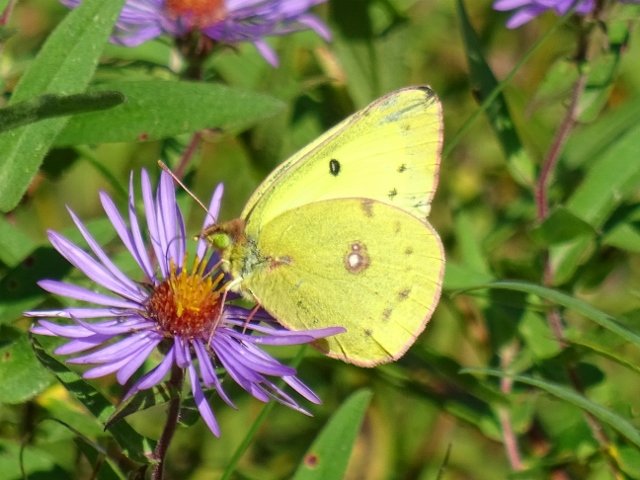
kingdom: Animalia
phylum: Arthropoda
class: Insecta
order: Lepidoptera
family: Pieridae
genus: Colias
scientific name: Colias philodice
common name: Clouded Sulphur
